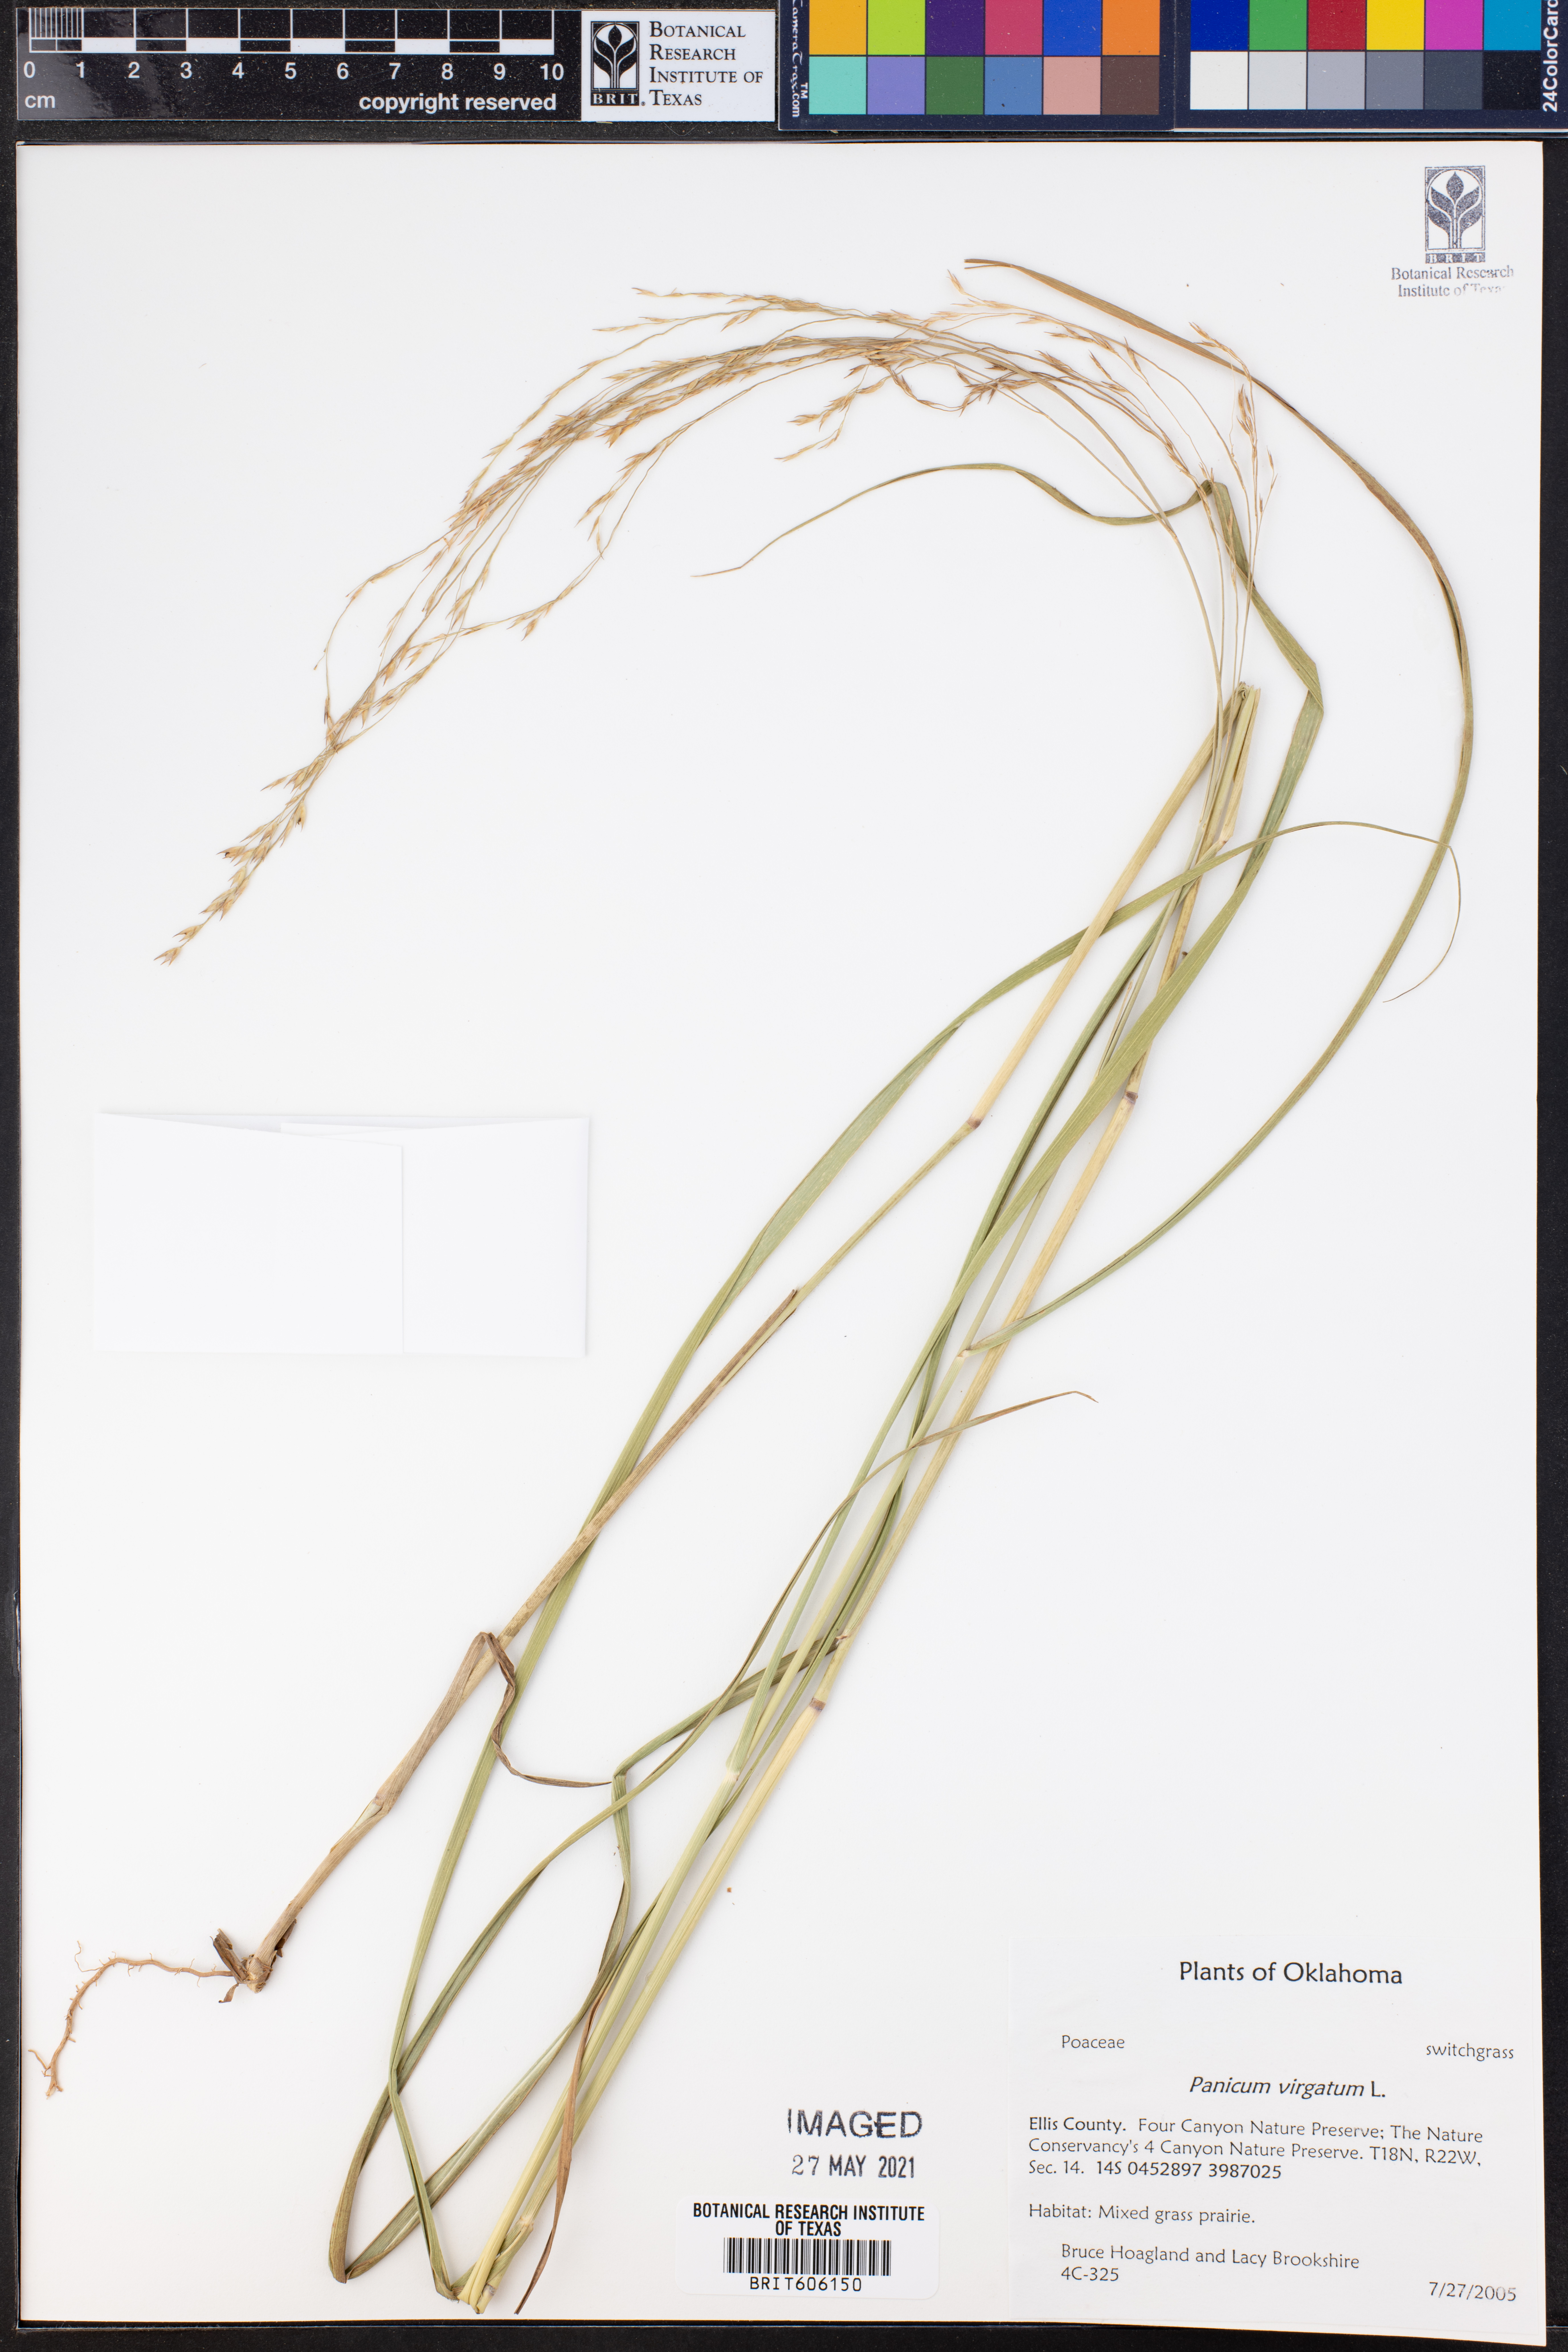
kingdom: Plantae
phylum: Tracheophyta
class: Liliopsida
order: Poales
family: Poaceae
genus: Panicum
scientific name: Panicum virgatum
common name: Switchgrass
